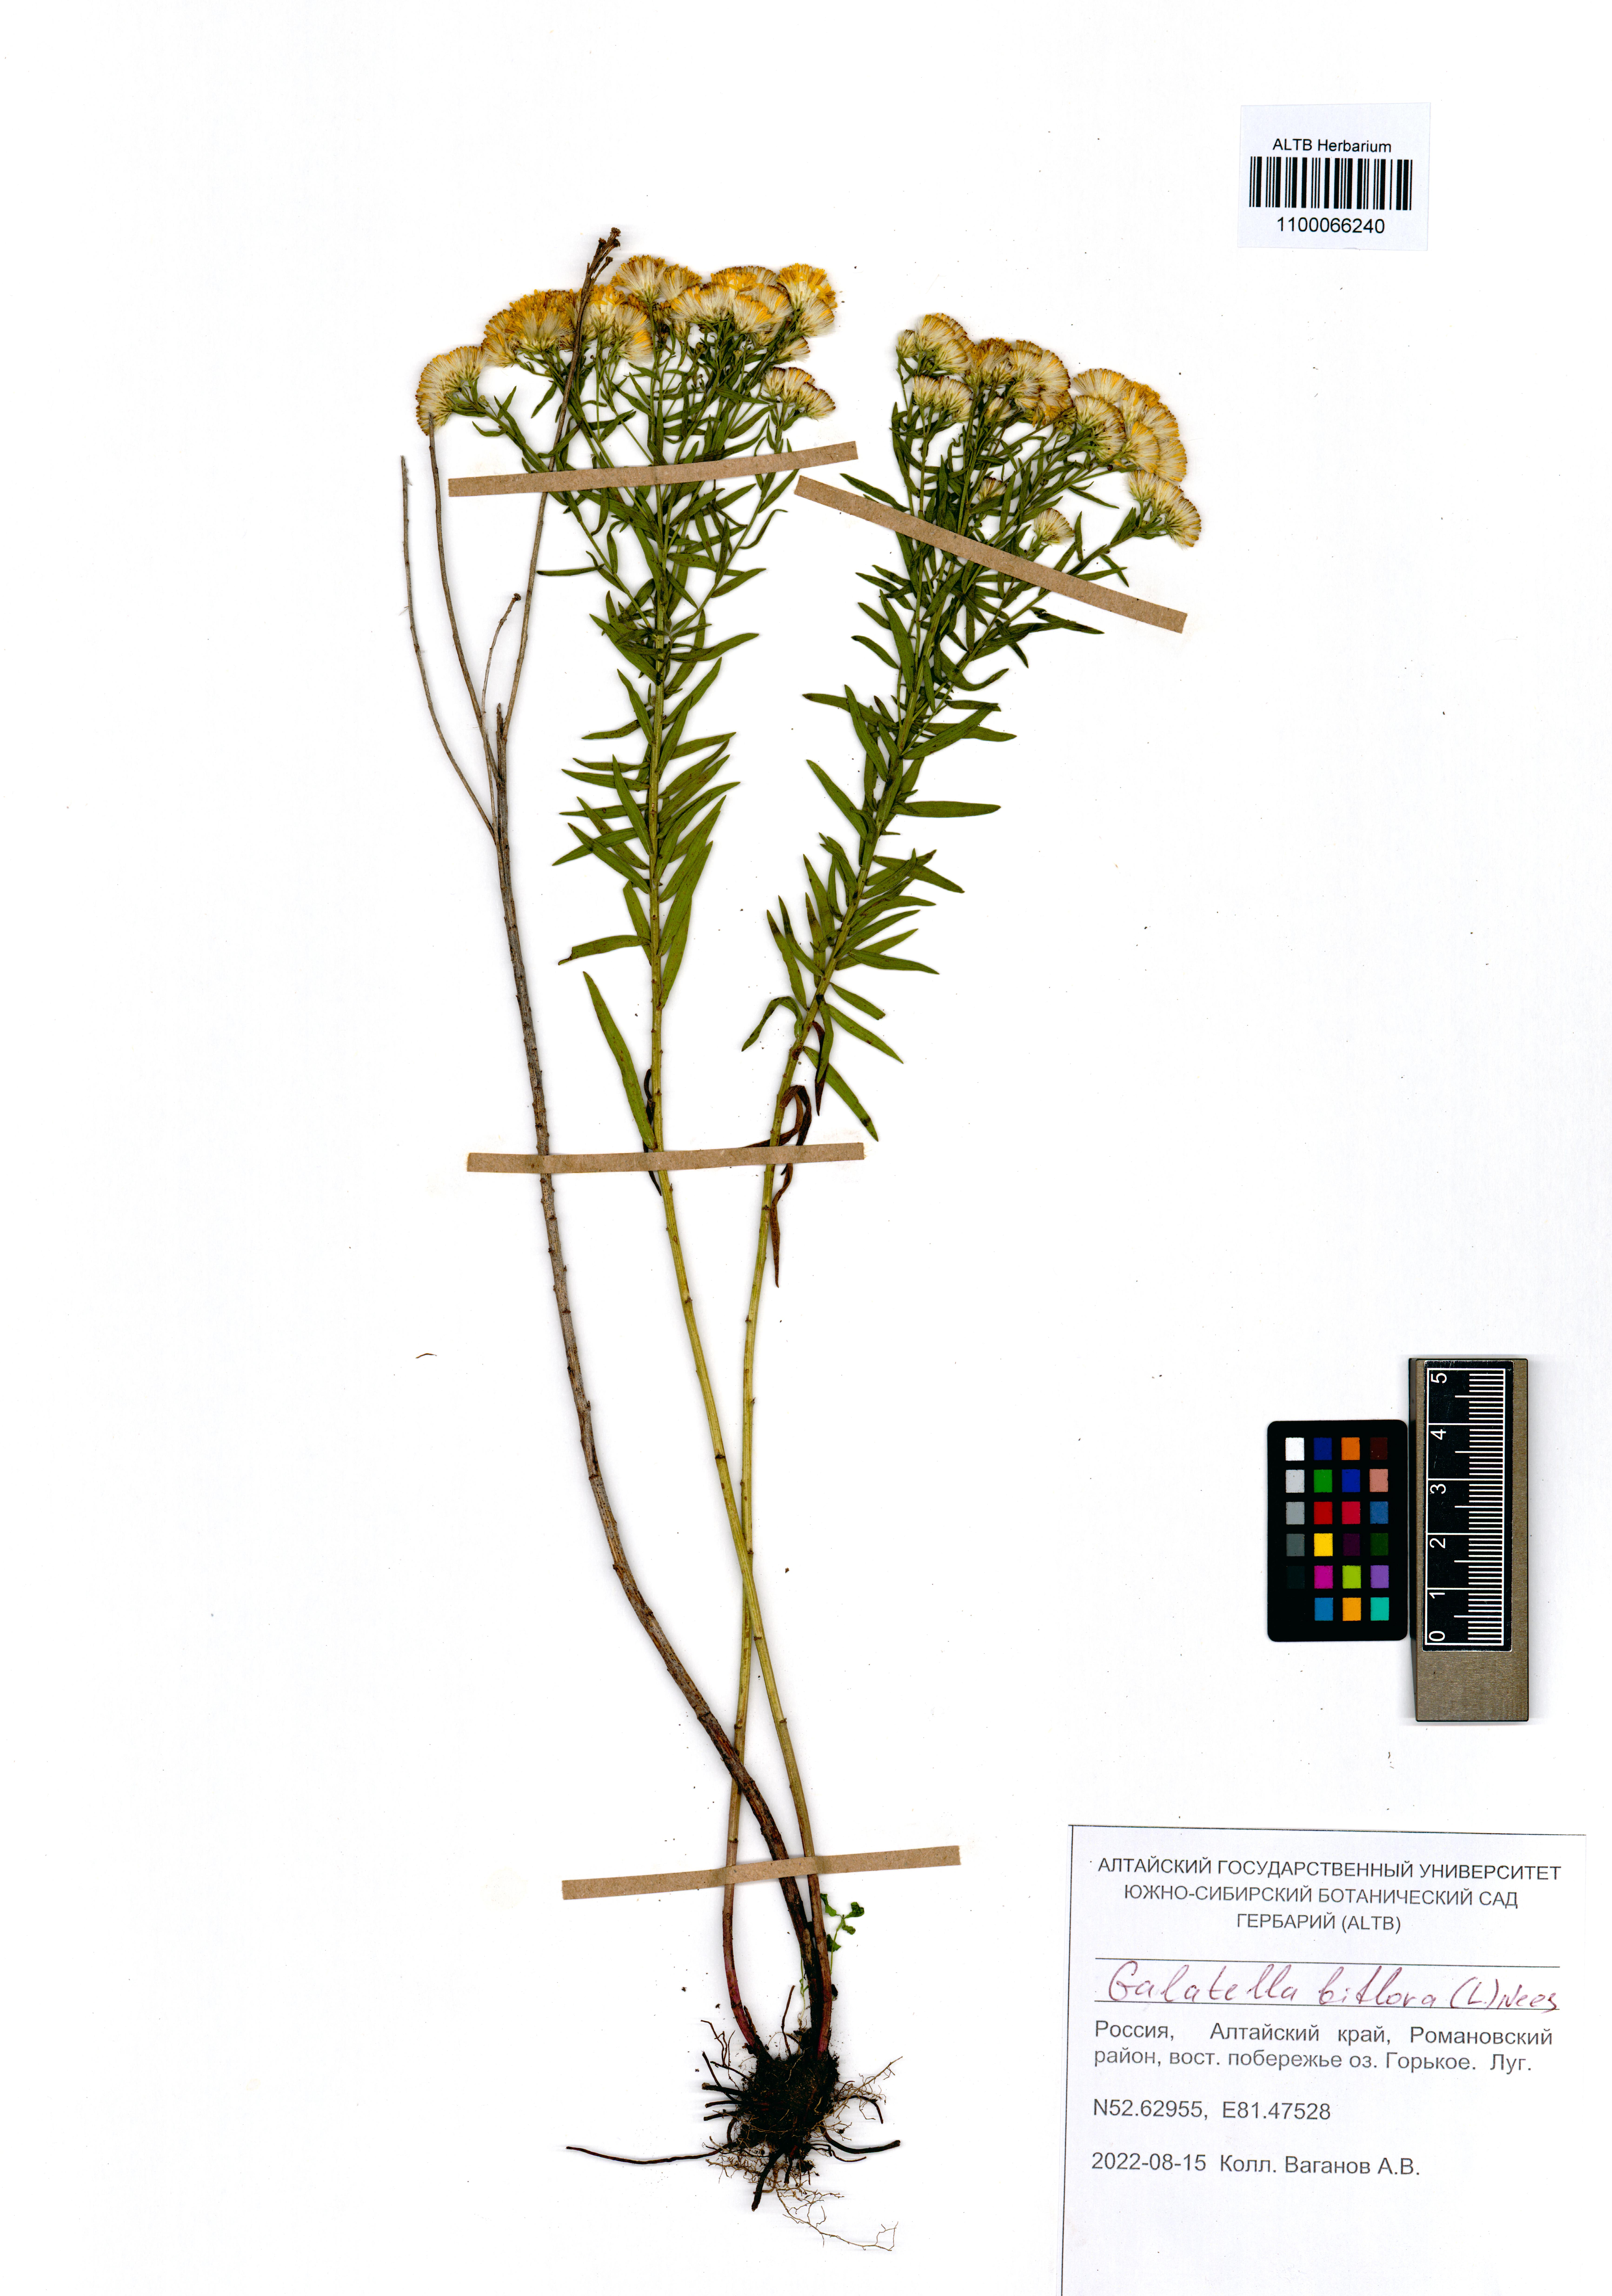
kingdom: Plantae
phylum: Tracheophyta
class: Magnoliopsida
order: Asterales
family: Asteraceae
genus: Galatella
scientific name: Galatella biflora
